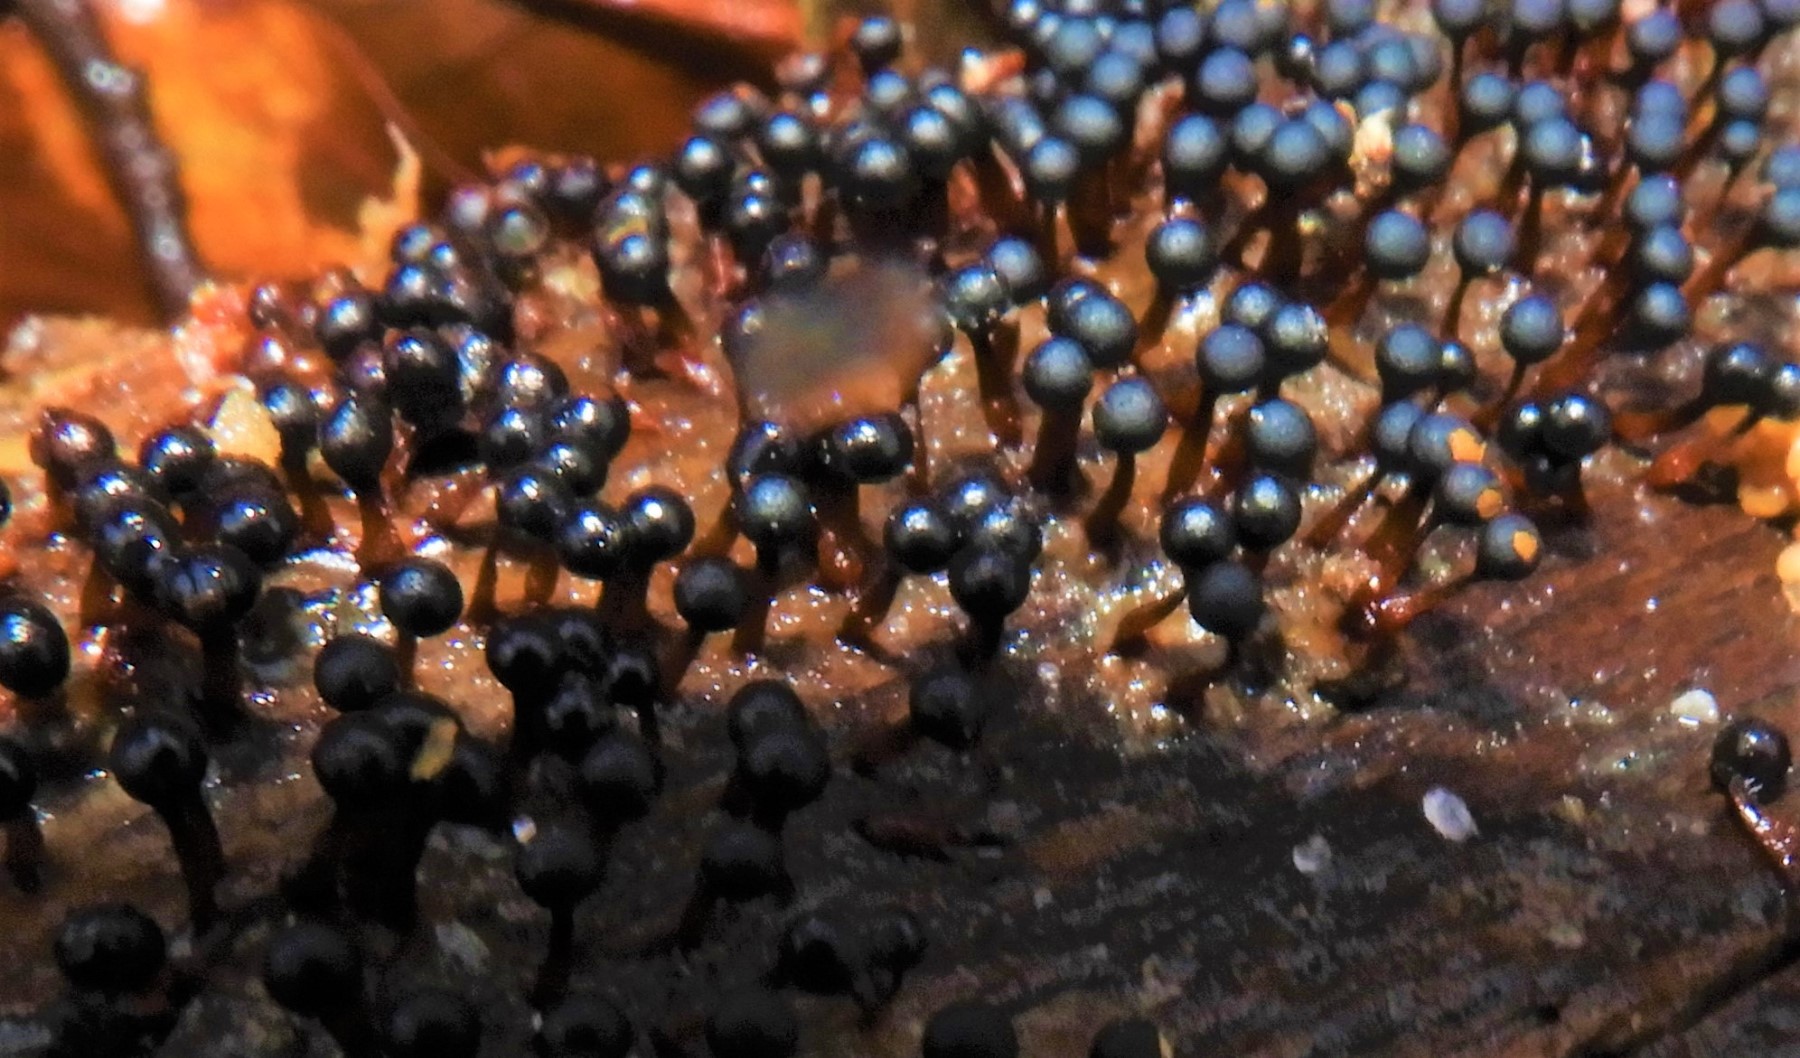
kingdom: Protozoa
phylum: Mycetozoa
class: Myxomycetes
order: Trichiales
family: Trichiaceae
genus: Metatrichia
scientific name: Metatrichia floriformis
